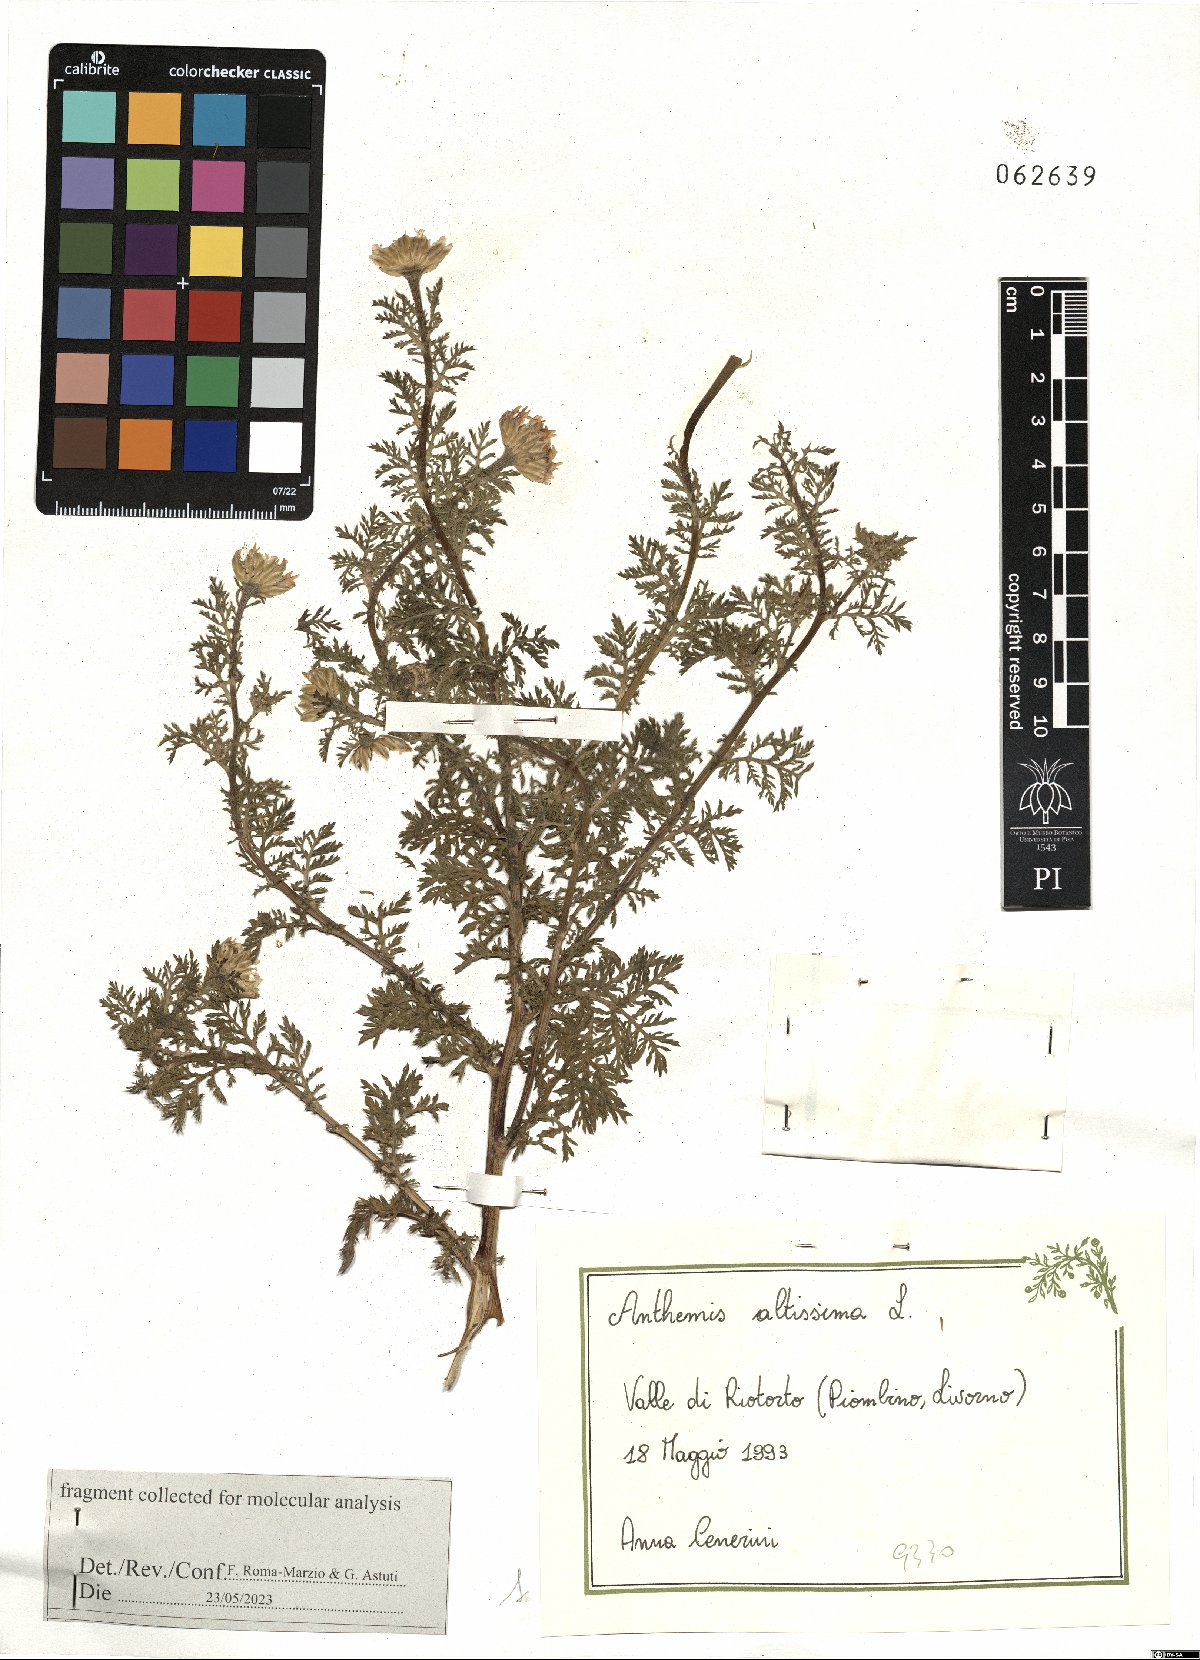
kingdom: Plantae
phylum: Tracheophyta
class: Magnoliopsida
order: Asterales
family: Asteraceae
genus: Cota
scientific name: Cota altissima
